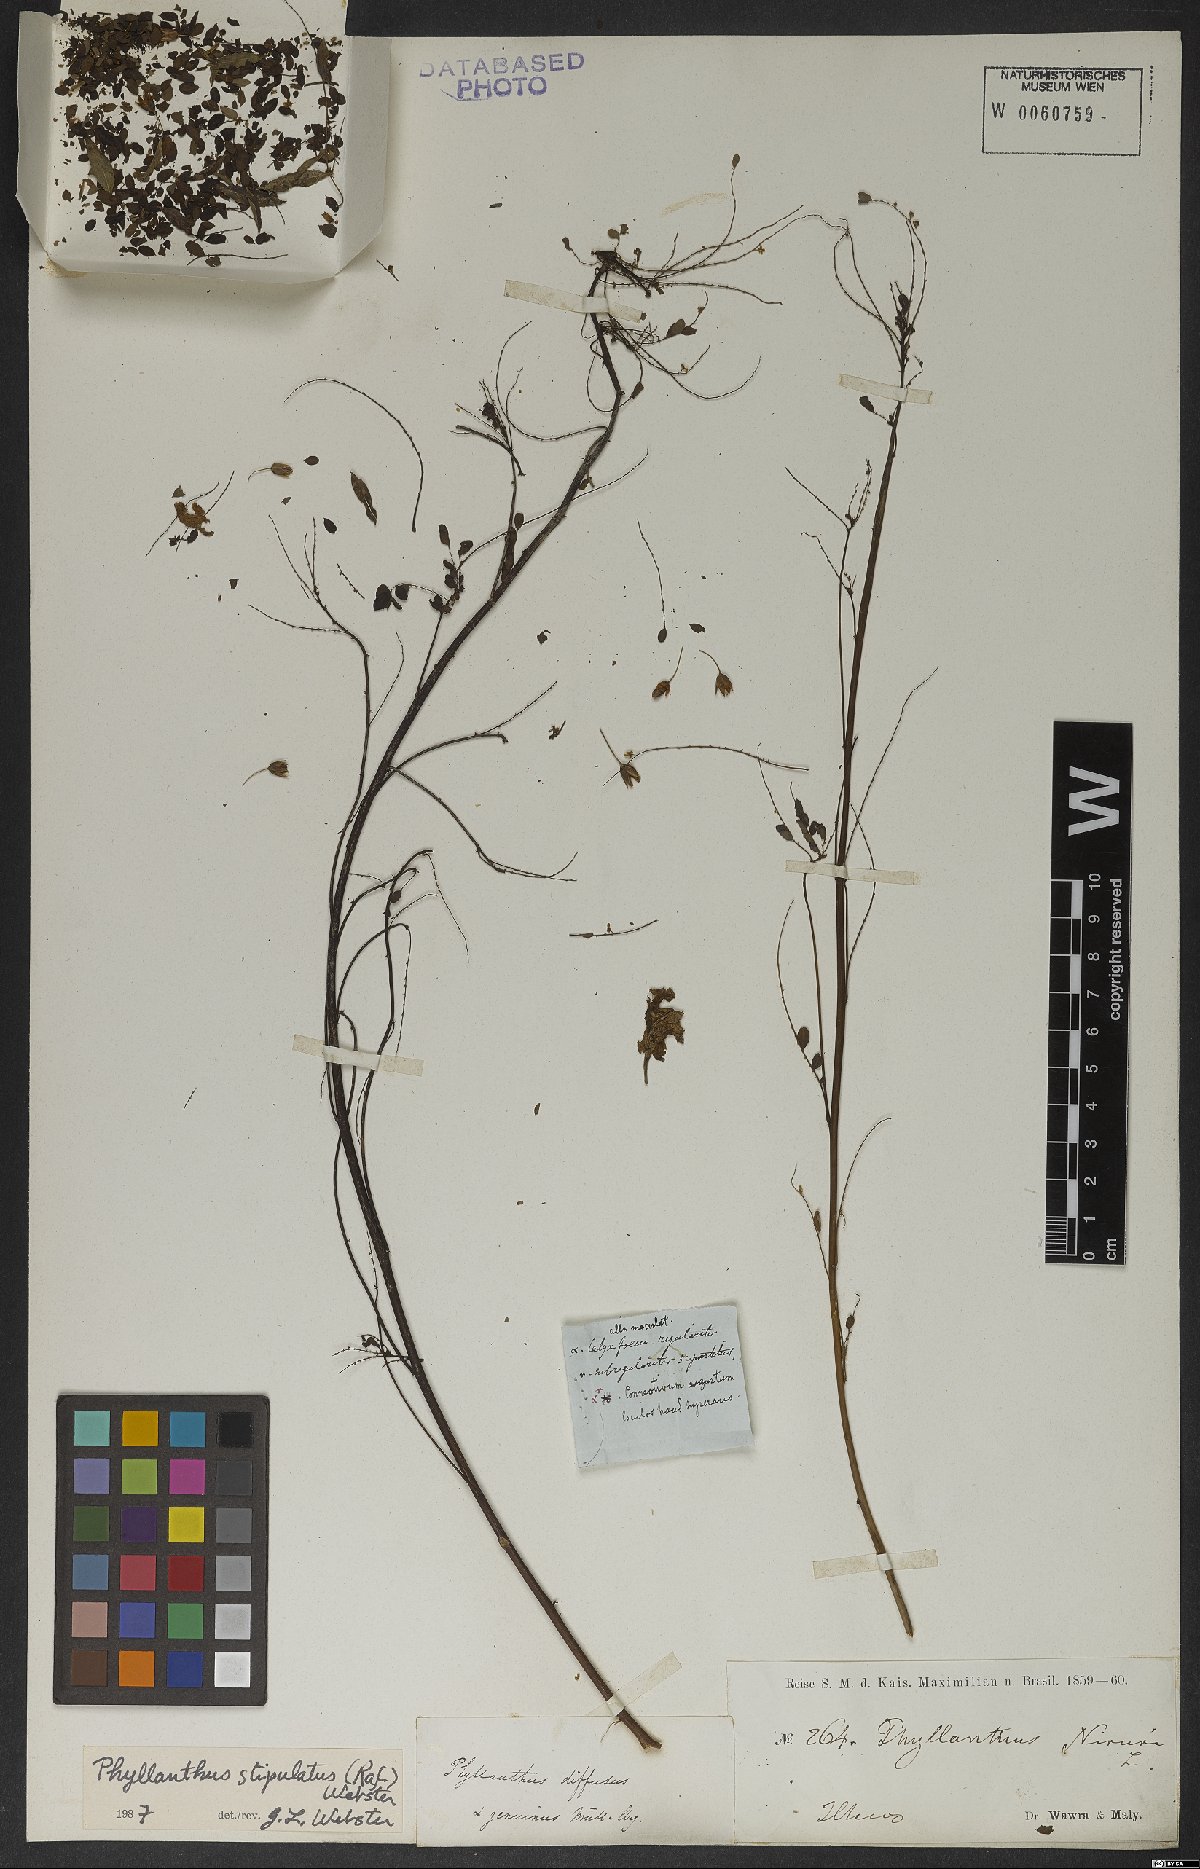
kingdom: Plantae
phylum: Tracheophyta
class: Magnoliopsida
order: Malpighiales
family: Phyllanthaceae
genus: Phyllanthus
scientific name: Phyllanthus stipulatus
